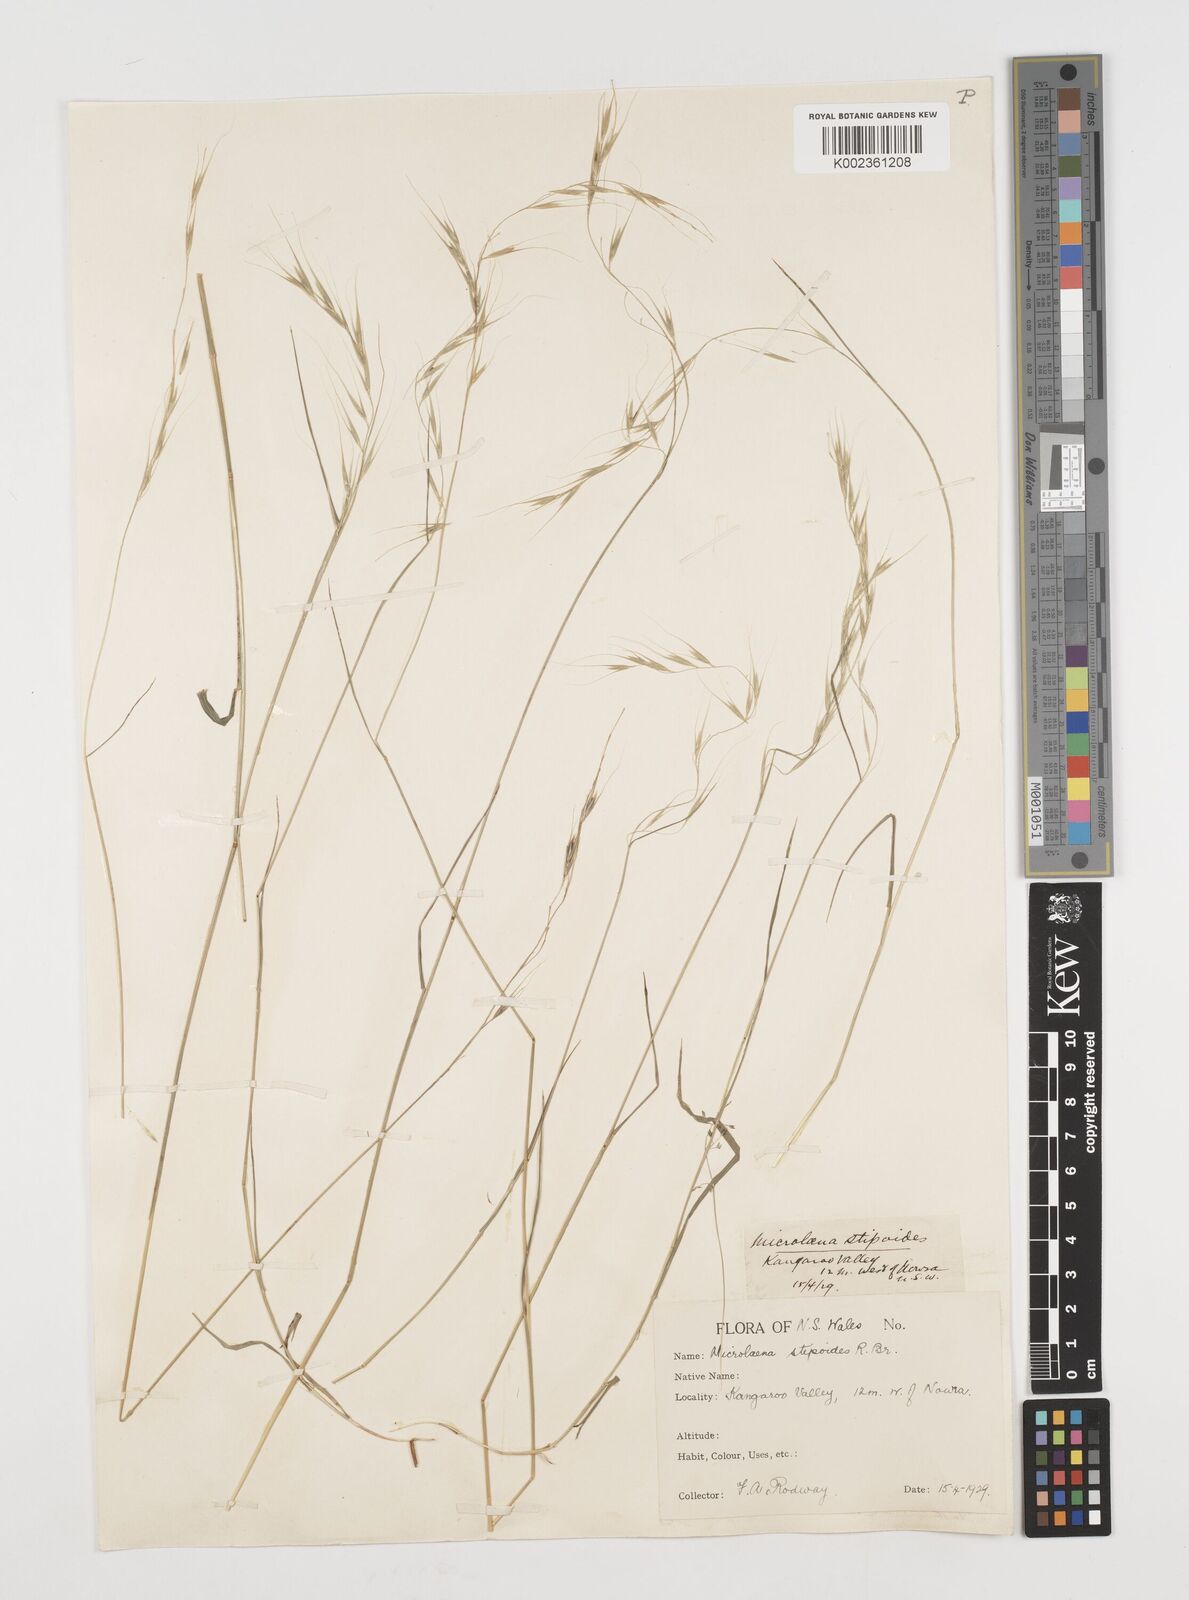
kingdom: Plantae
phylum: Tracheophyta
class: Liliopsida
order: Poales
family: Poaceae
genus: Microlaena
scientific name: Microlaena stipoides
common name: Meadow ricegrass
